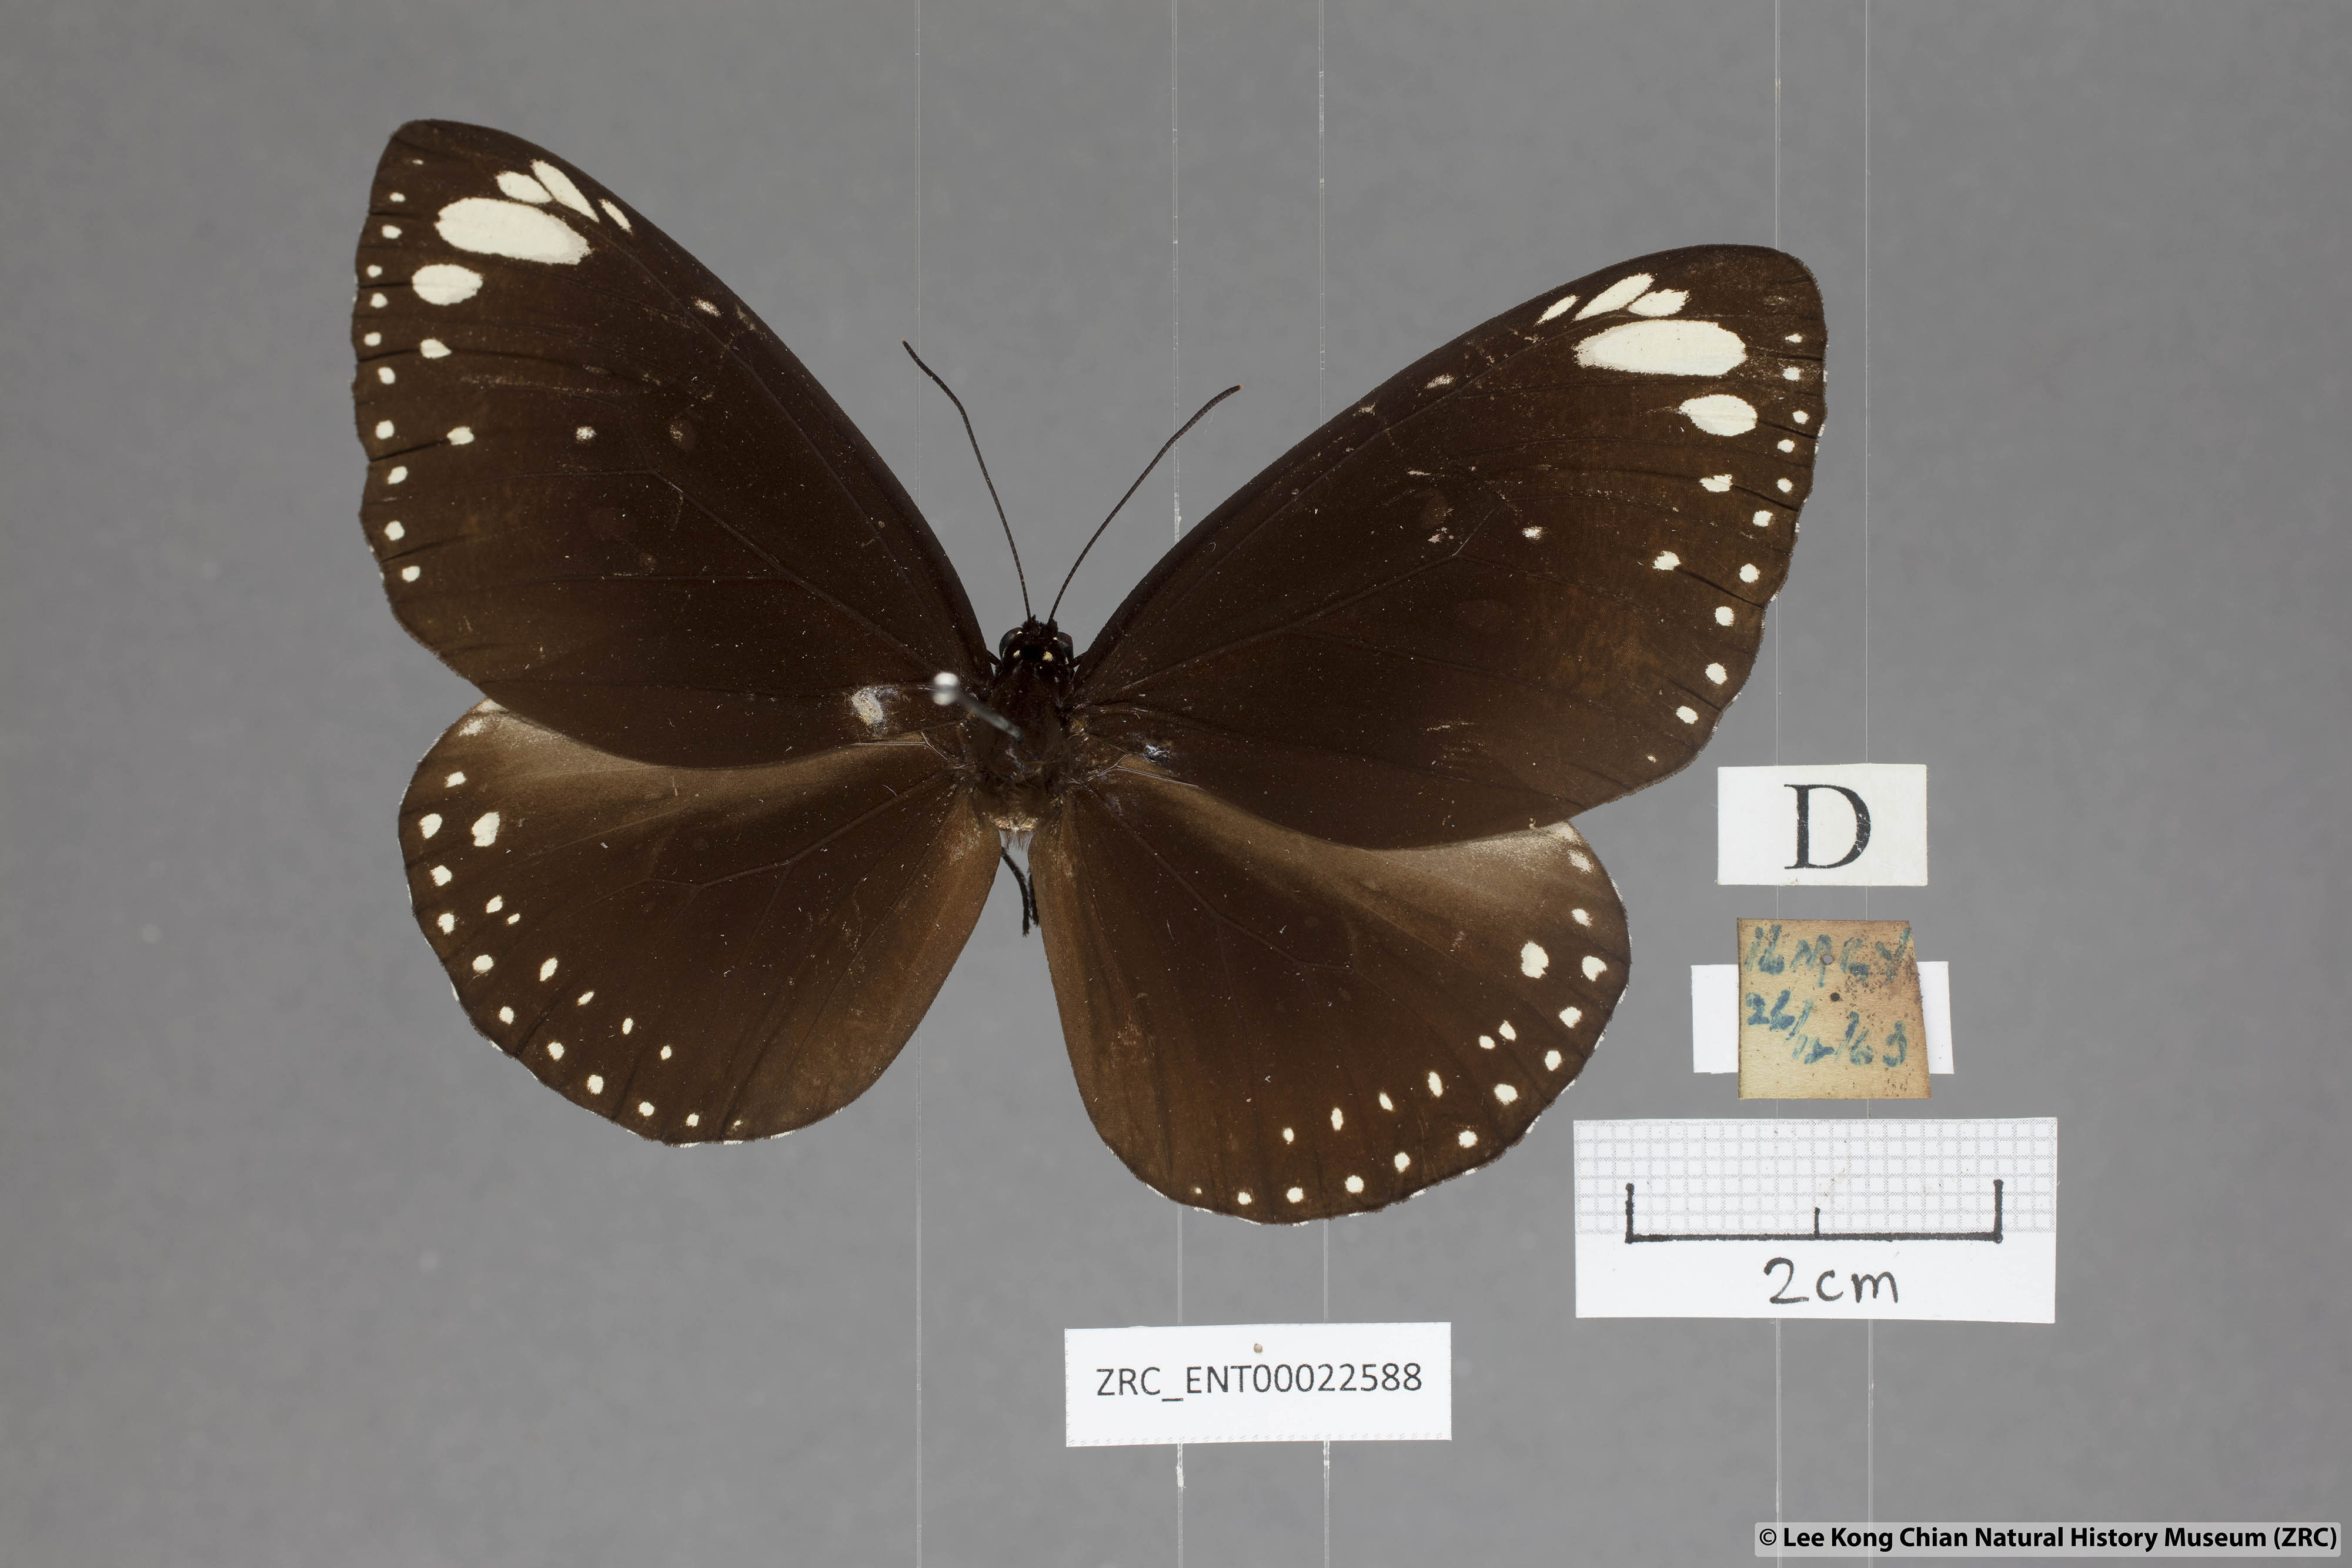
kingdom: Animalia
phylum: Arthropoda
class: Insecta
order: Lepidoptera
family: Nymphalidae
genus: Euploea
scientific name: Euploea crameri
